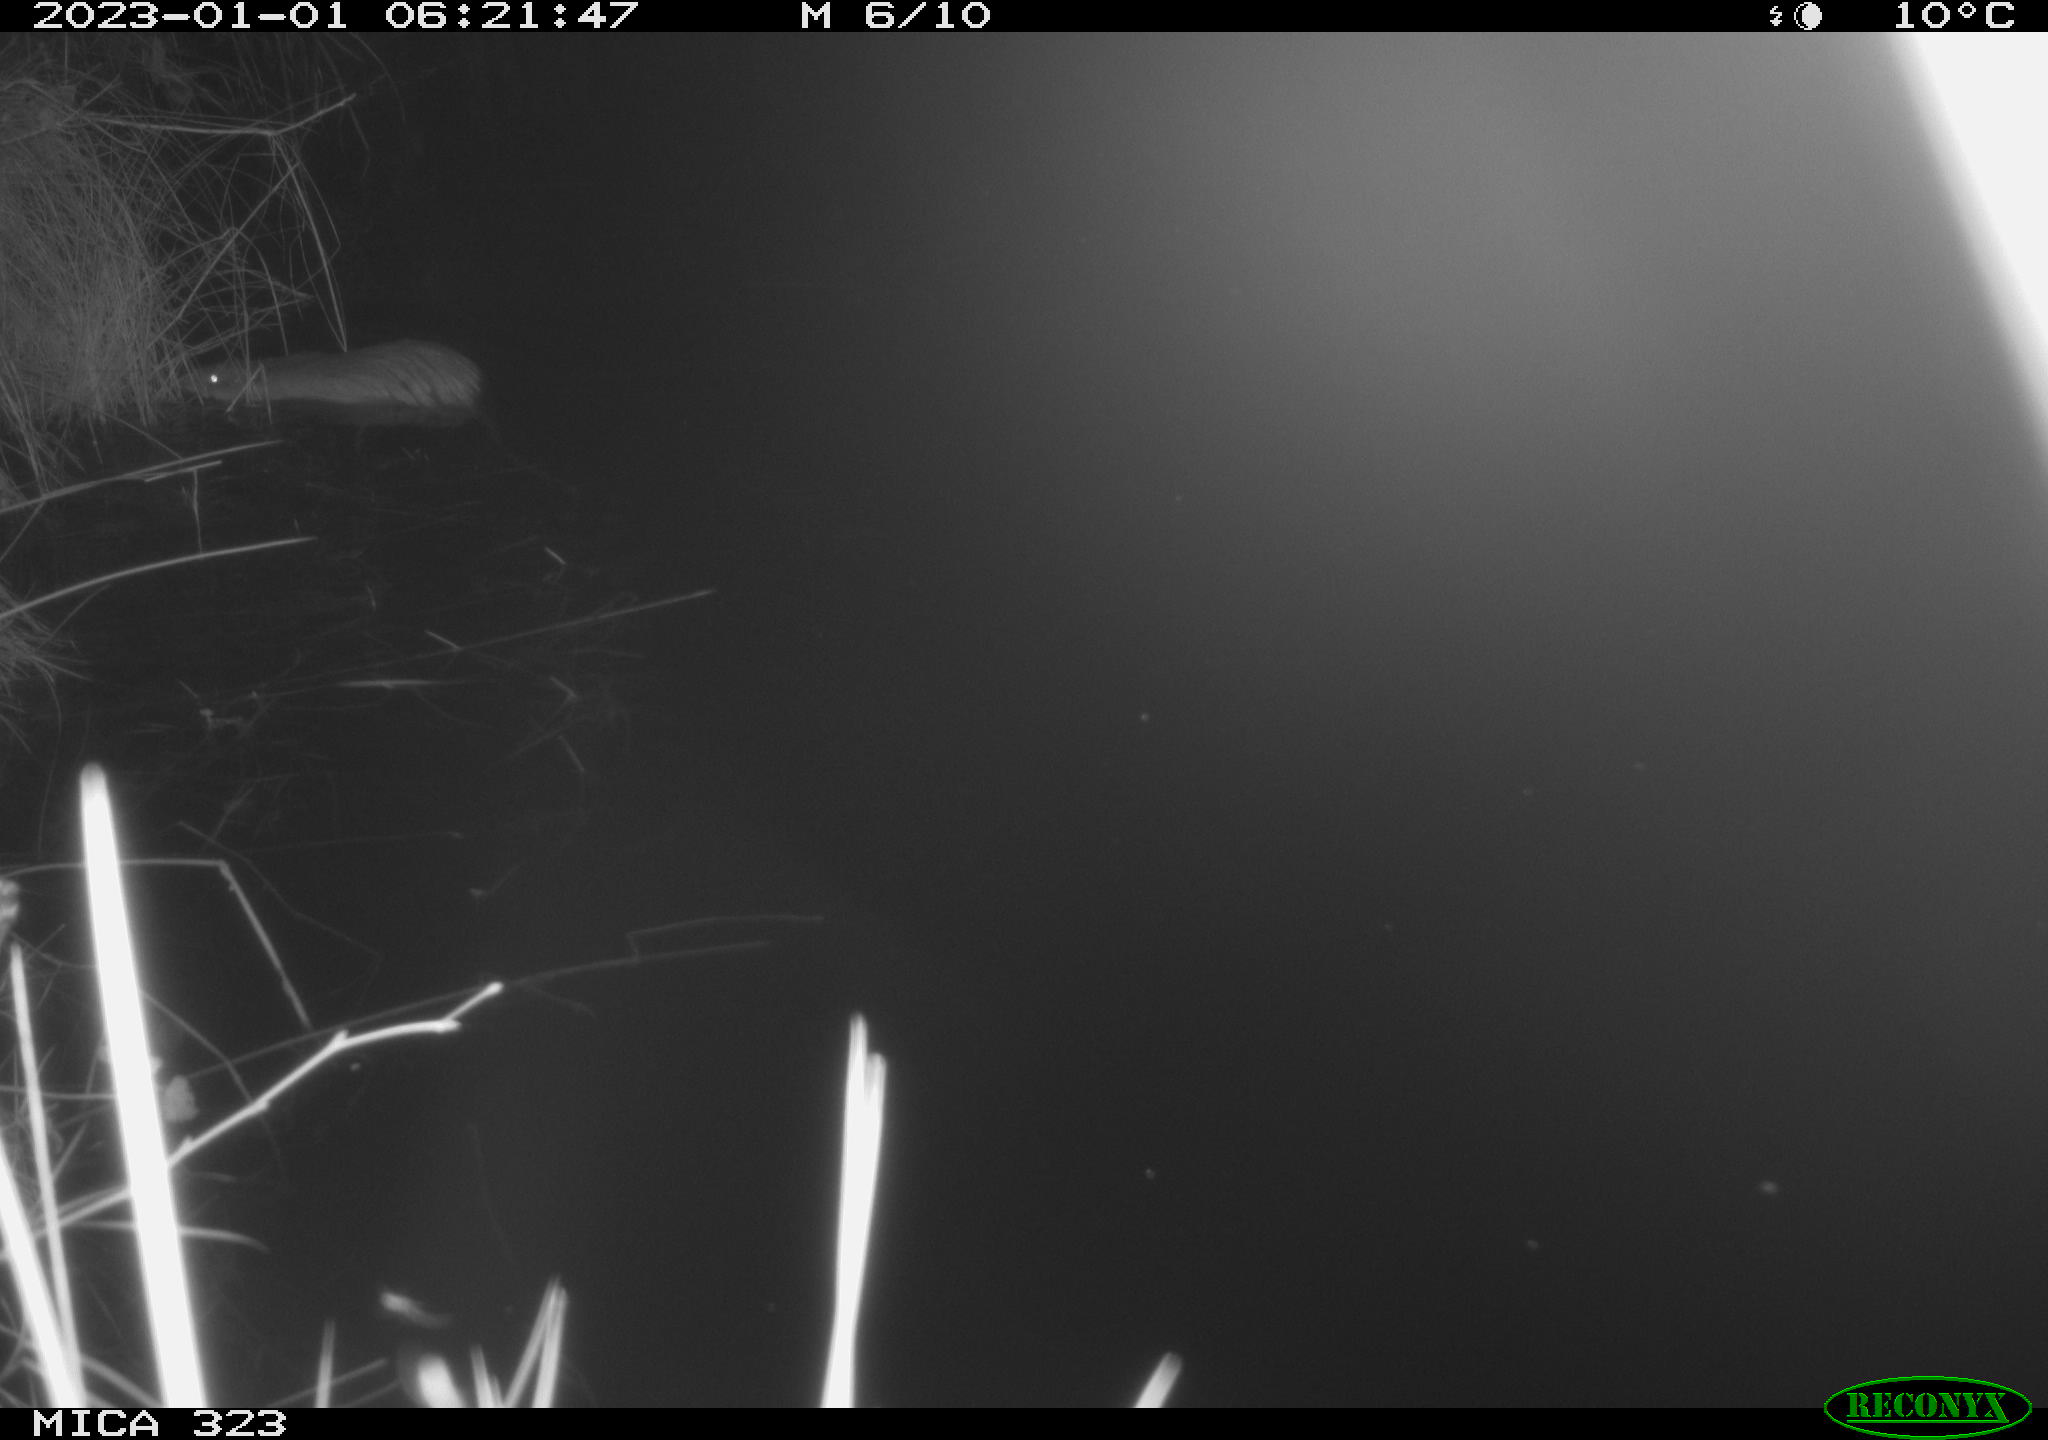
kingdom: Animalia
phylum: Chordata
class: Mammalia
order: Rodentia
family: Cricetidae
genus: Ondatra
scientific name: Ondatra zibethicus
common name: Muskrat
